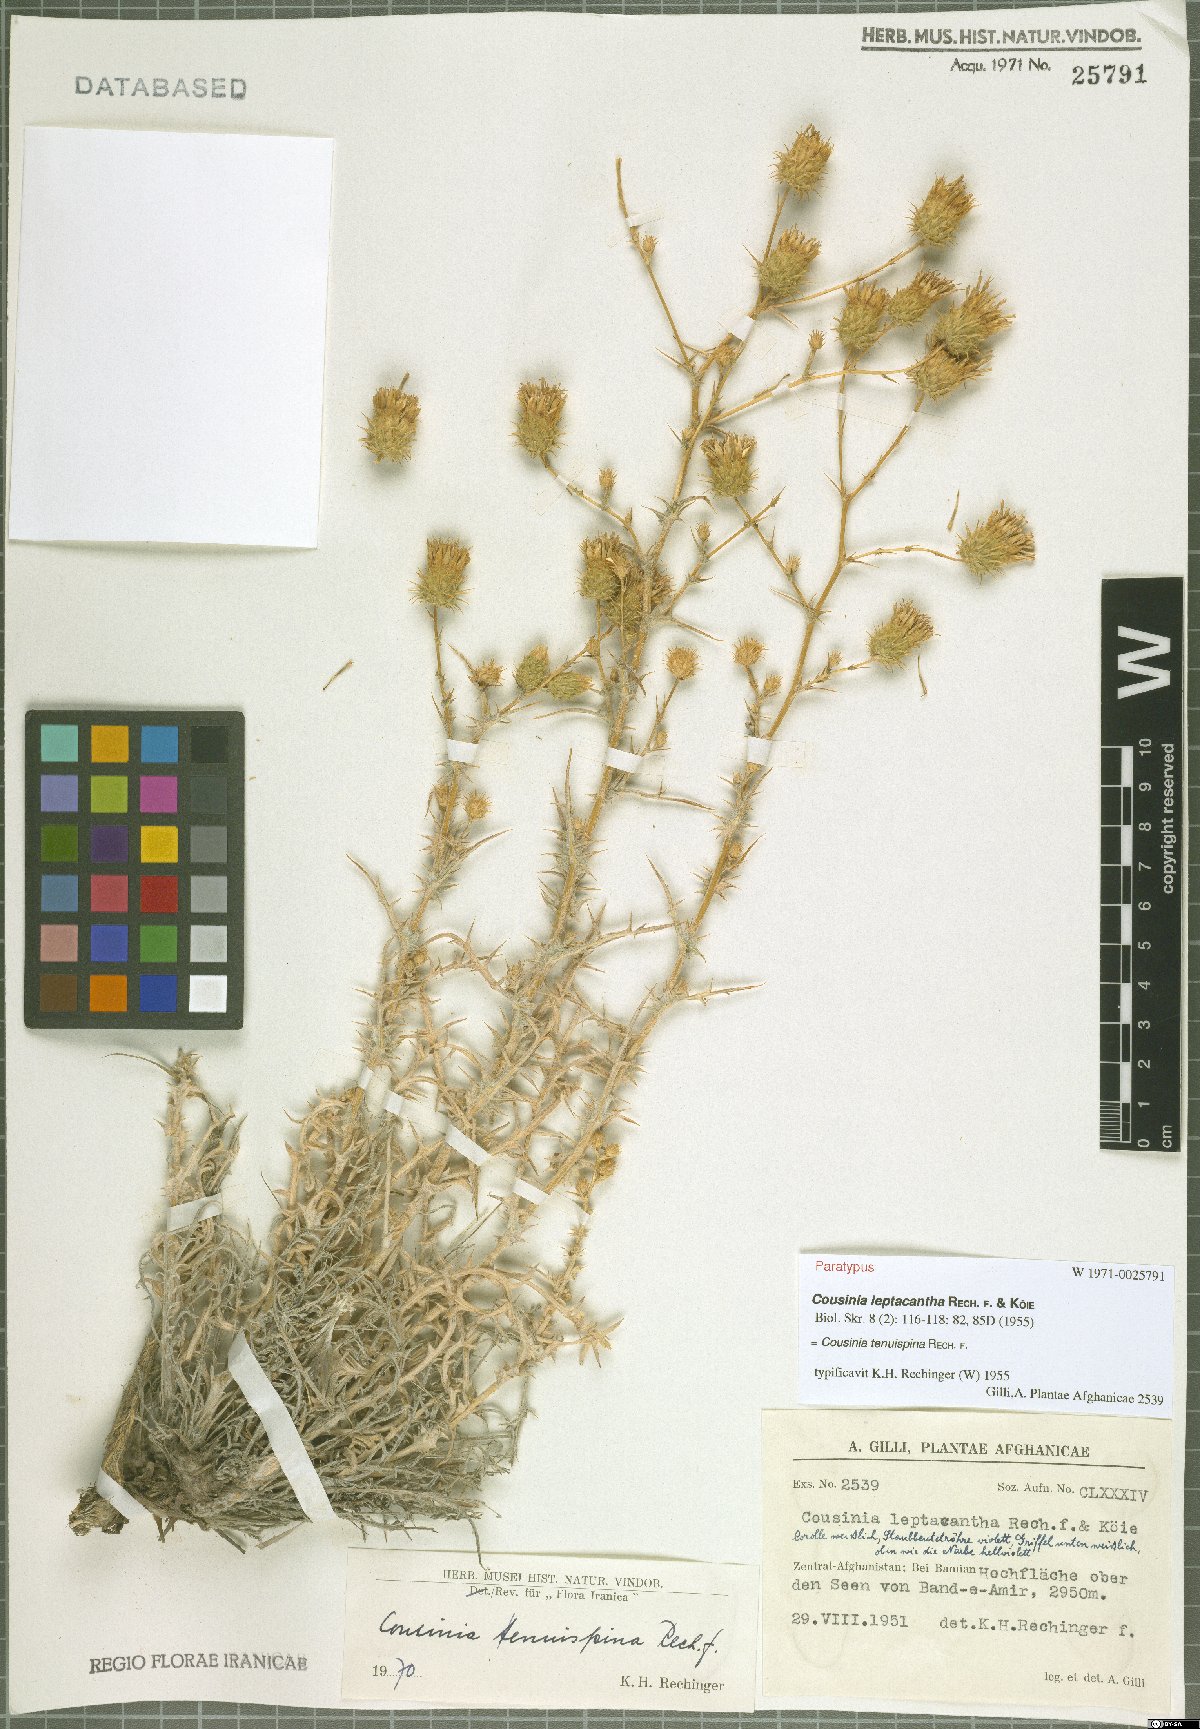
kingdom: Plantae
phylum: Tracheophyta
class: Magnoliopsida
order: Asterales
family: Asteraceae
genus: Cousinia
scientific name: Cousinia tenuispina
